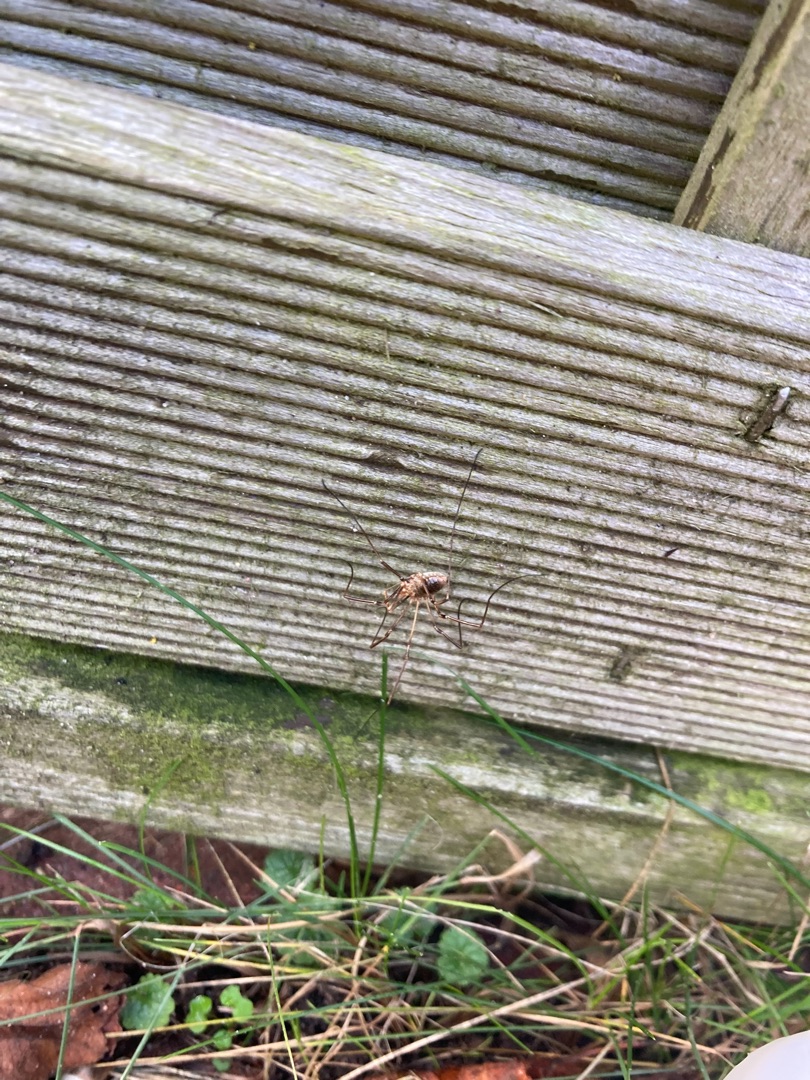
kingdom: Animalia
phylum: Arthropoda
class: Arachnida
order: Opiliones
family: Phalangiidae
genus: Phalangium
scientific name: Phalangium opilio
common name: Hornmejer
